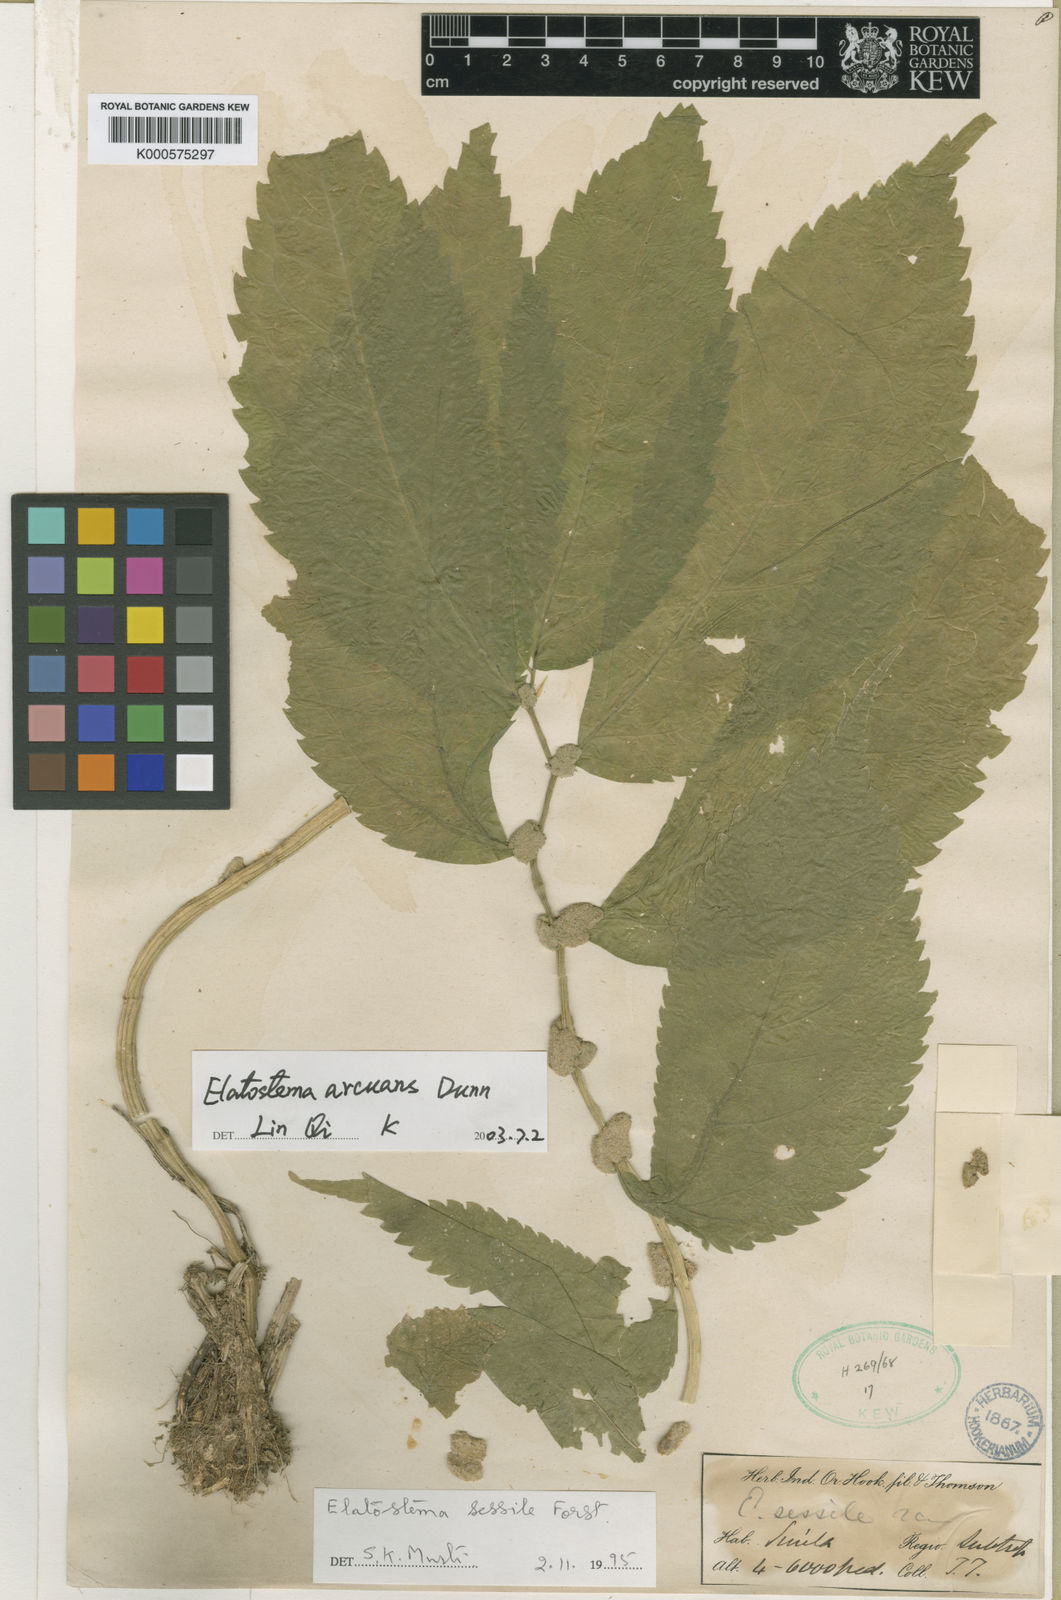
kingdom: Plantae
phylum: Tracheophyta
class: Magnoliopsida
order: Rosales
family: Urticaceae
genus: Elatostema
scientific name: Elatostema arcuans
